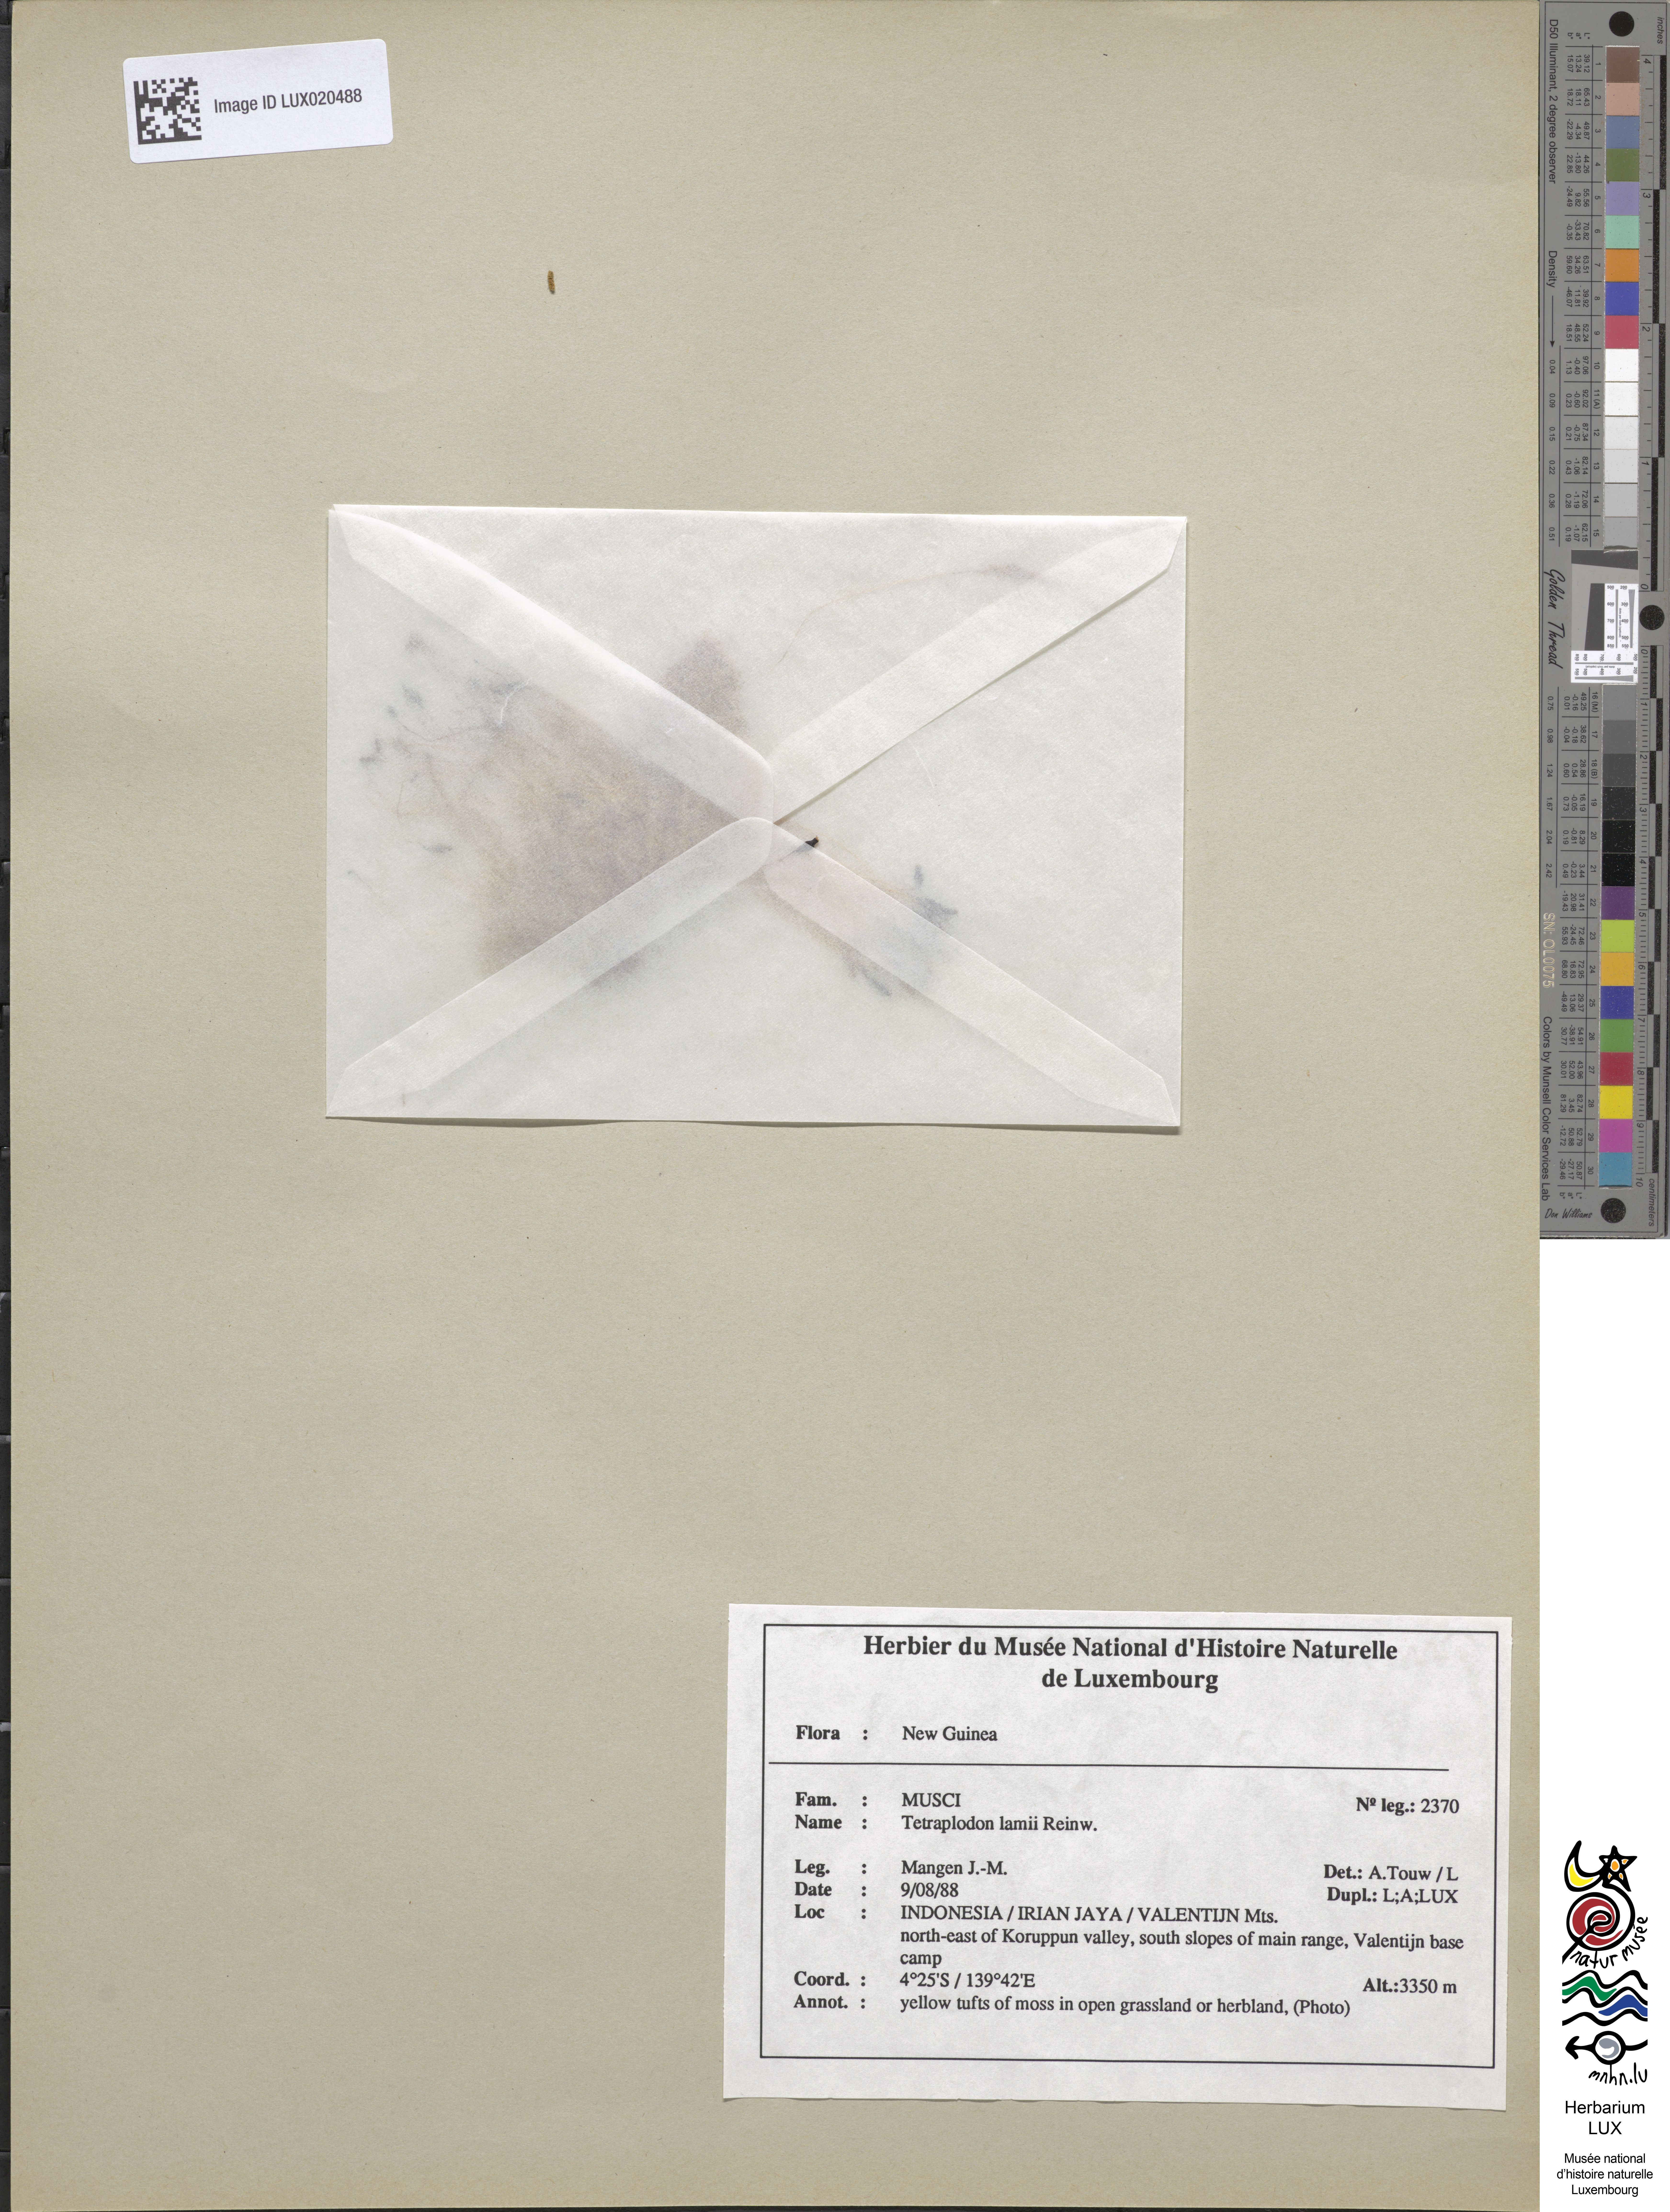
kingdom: Plantae
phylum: Bryophyta
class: Bryopsida
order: Splachnales
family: Splachnaceae
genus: Tetraplodon
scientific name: Tetraplodon mnioides
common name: Entire-leaved nitrogen moss
